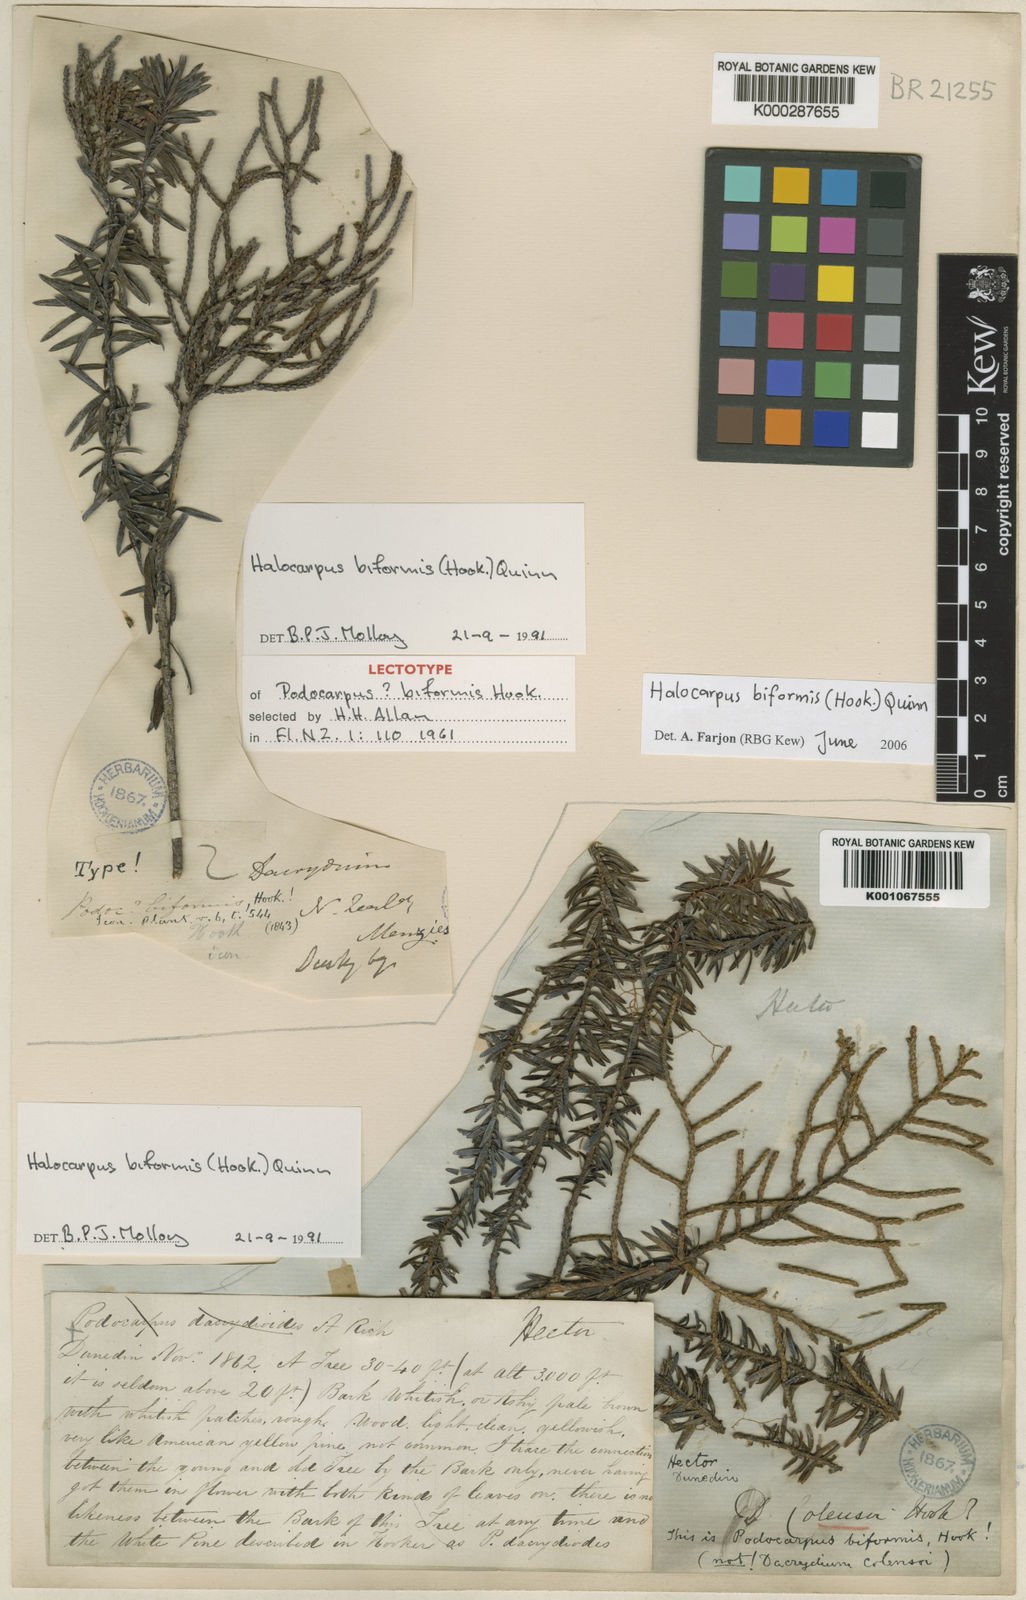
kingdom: Plantae
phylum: Tracheophyta
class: Pinopsida
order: Pinales
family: Podocarpaceae
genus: Halocarpus
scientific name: Halocarpus biformis
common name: Alpine tarwood
